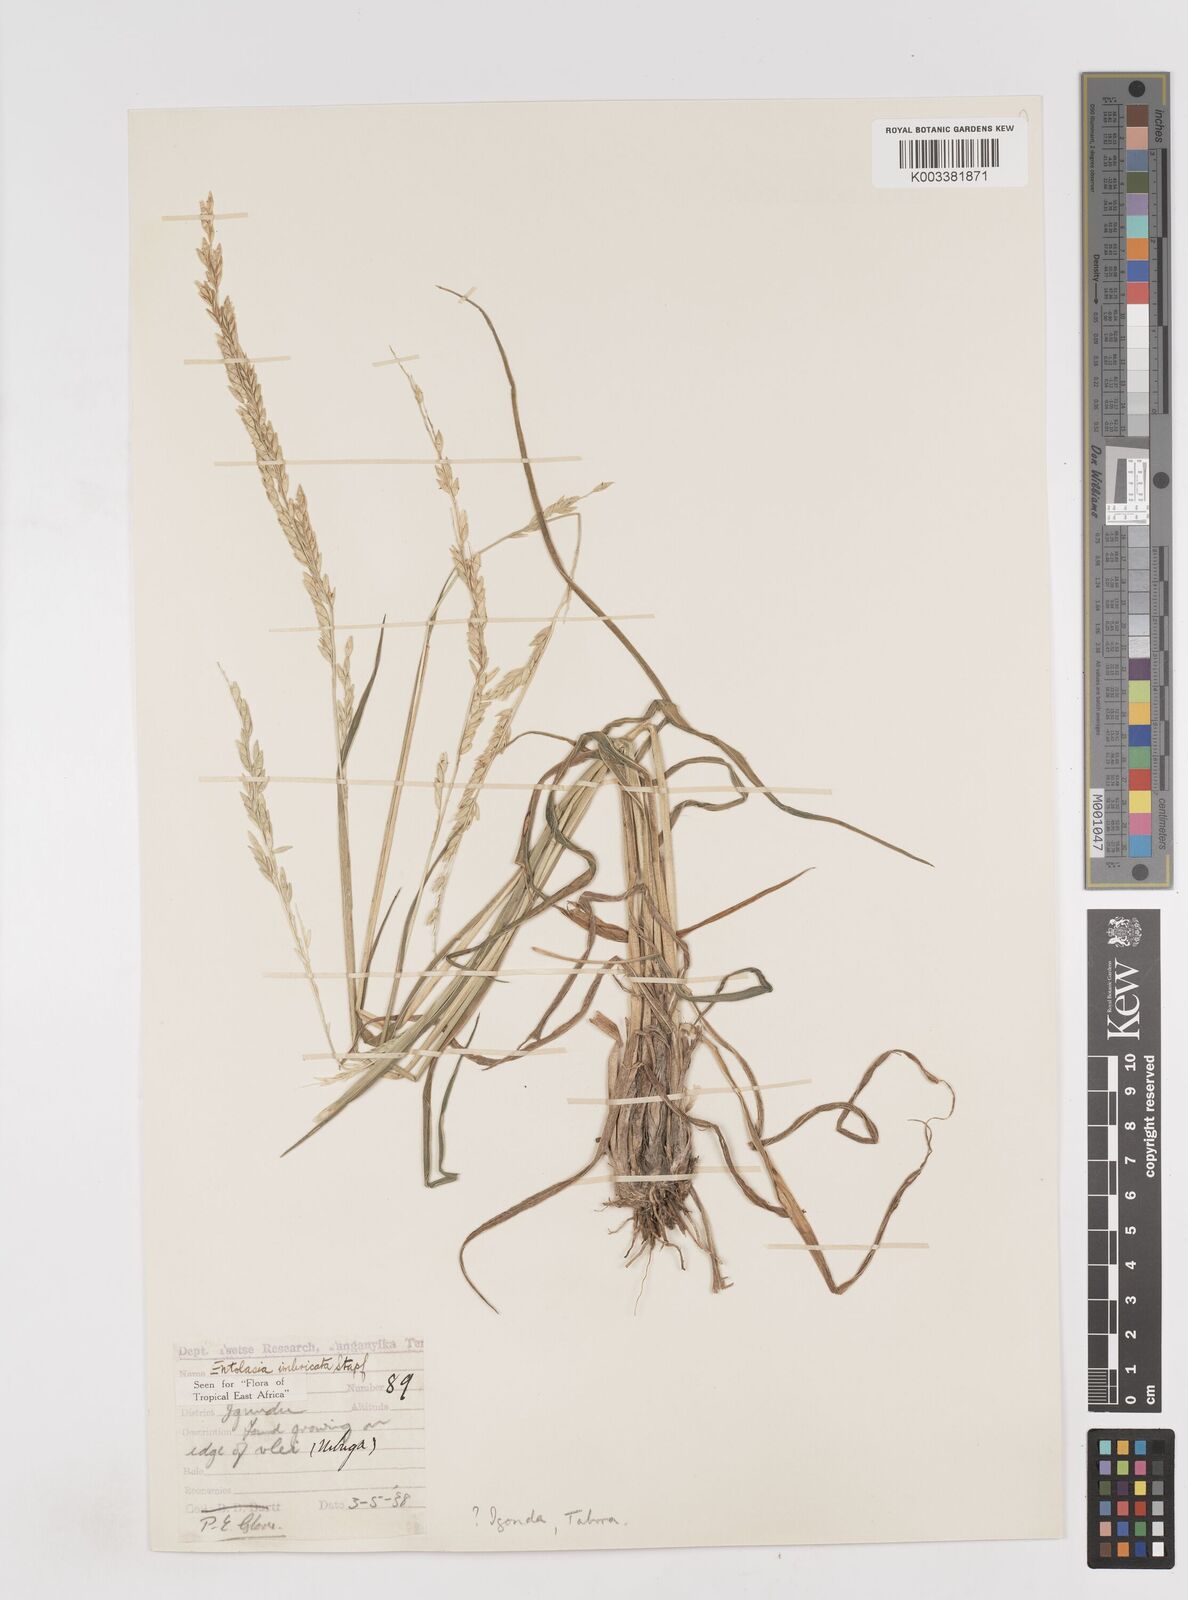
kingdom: Plantae
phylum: Tracheophyta
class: Liliopsida
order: Poales
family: Poaceae
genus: Entolasia
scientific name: Entolasia imbricata
